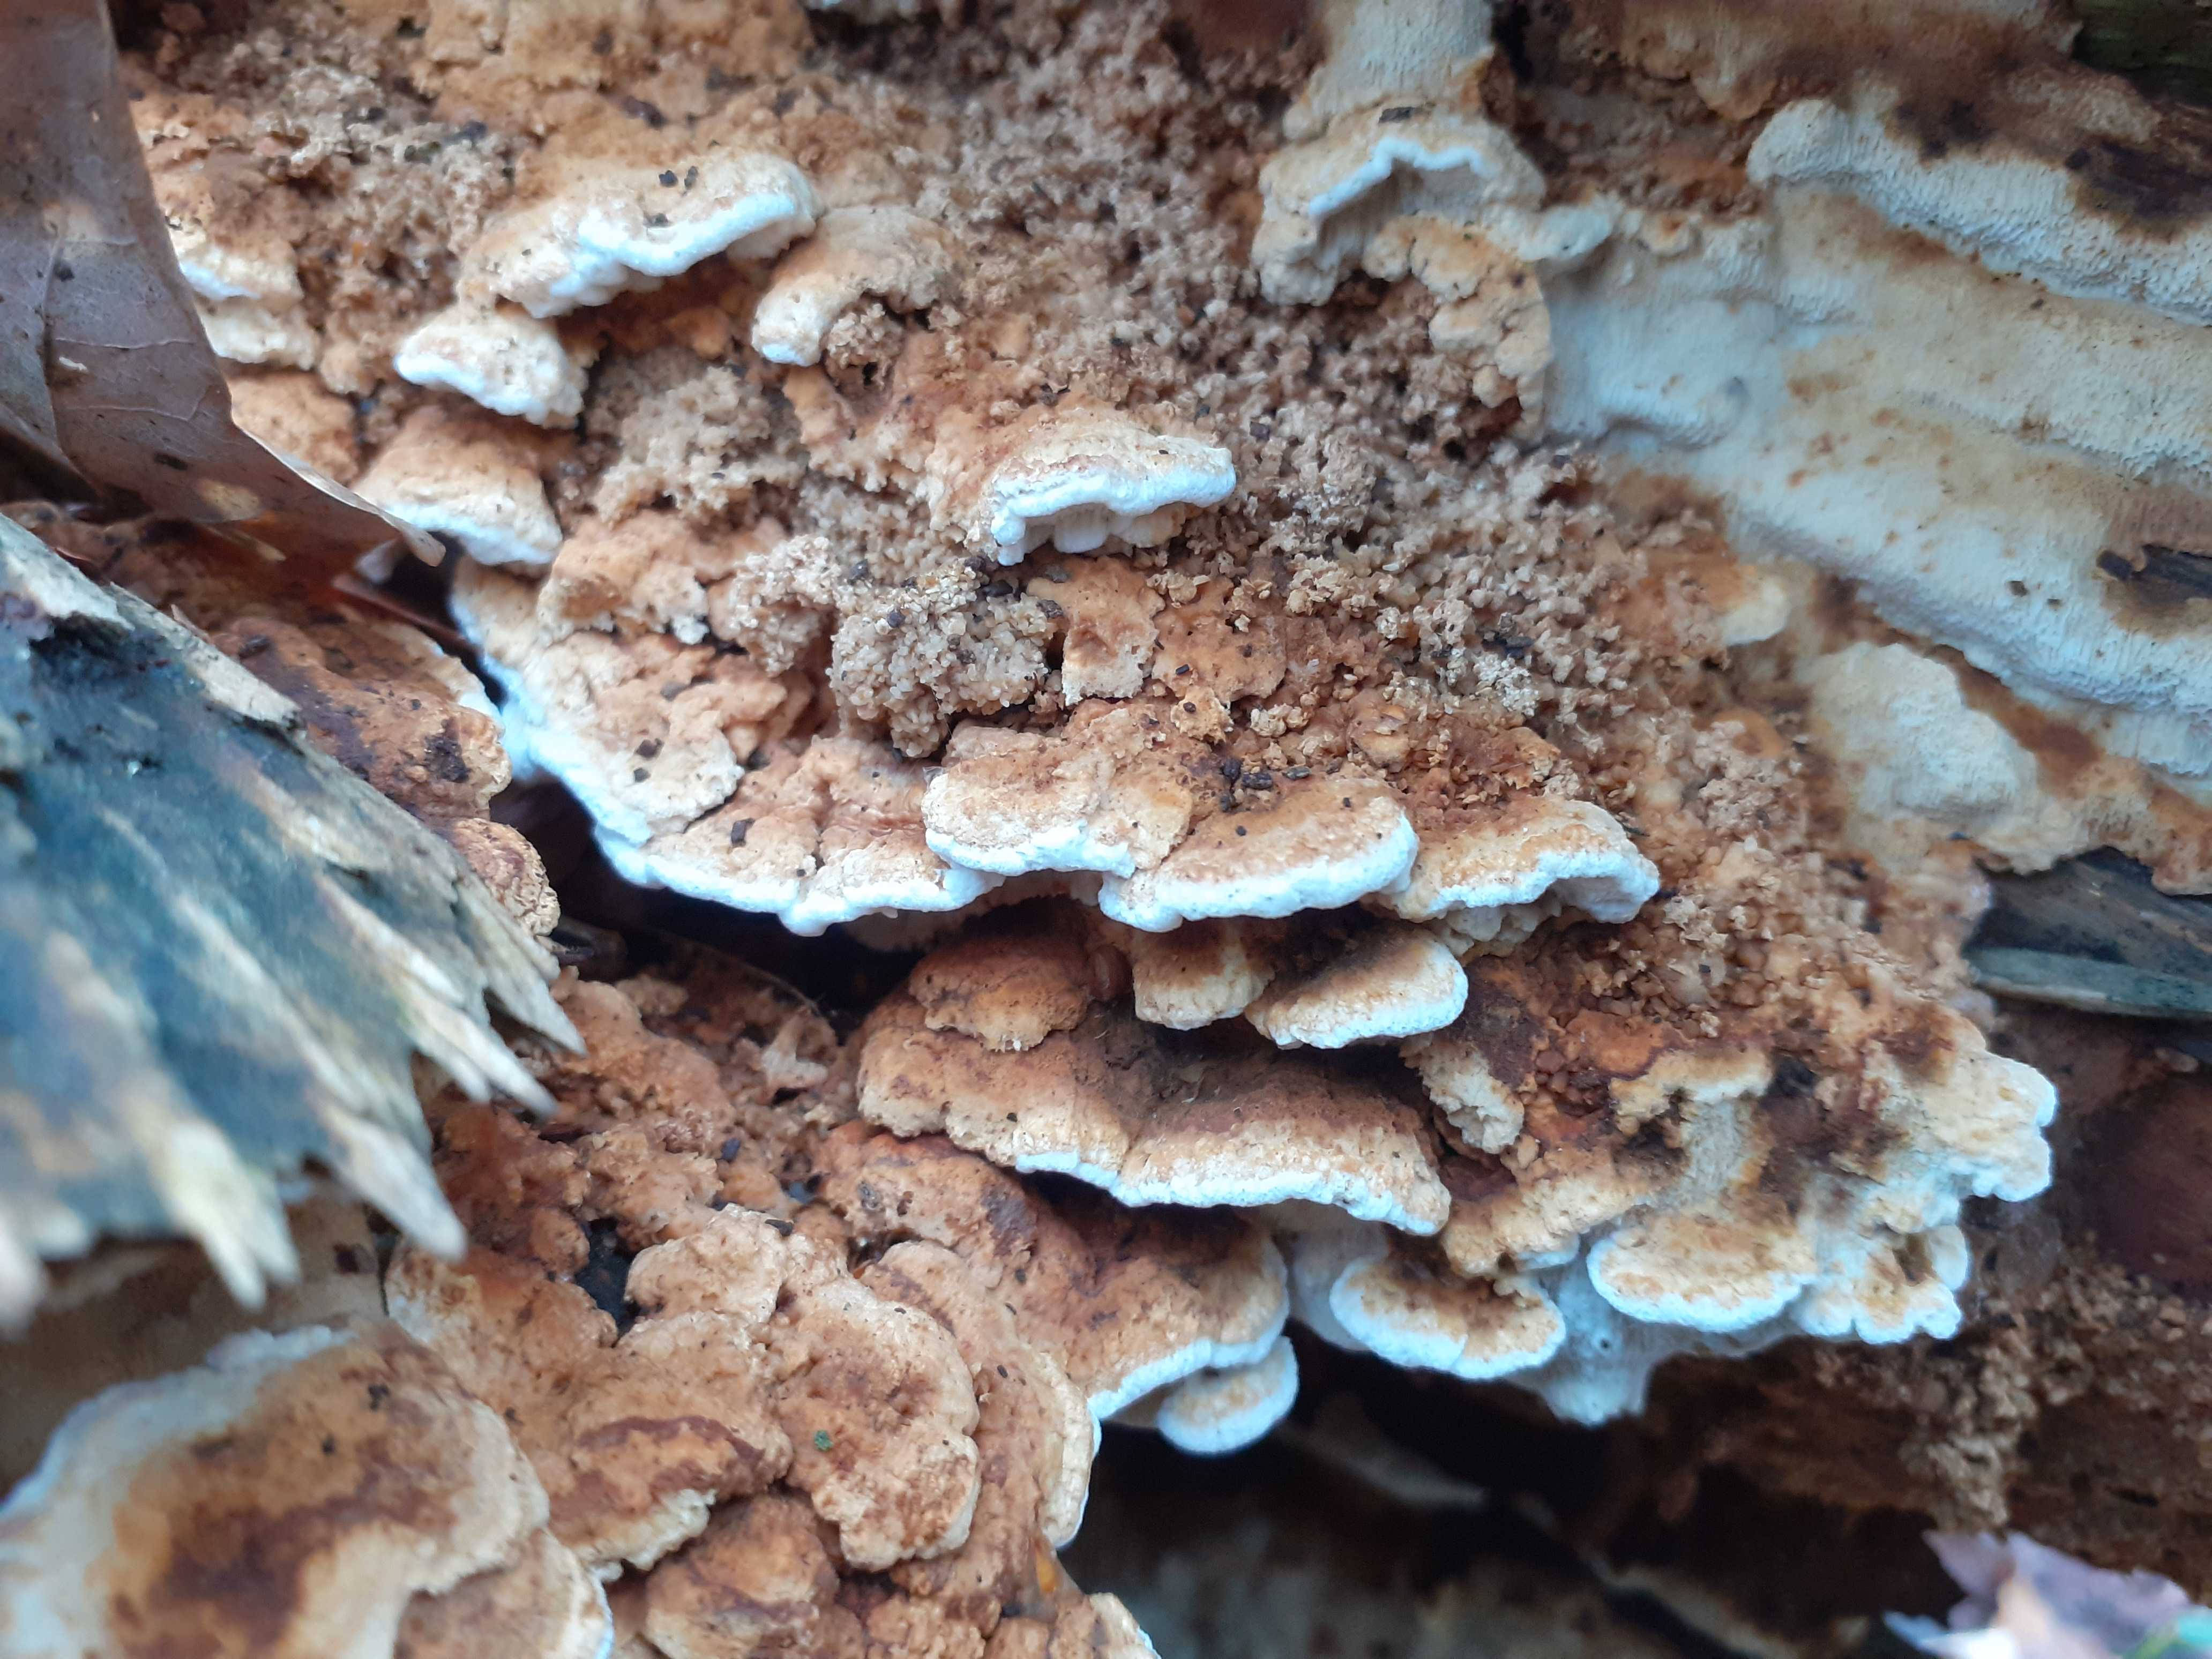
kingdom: Fungi
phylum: Basidiomycota
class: Agaricomycetes
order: Polyporales
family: Fomitopsidaceae
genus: Neoantrodia
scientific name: Neoantrodia serialis
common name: række-sejporesvamp
